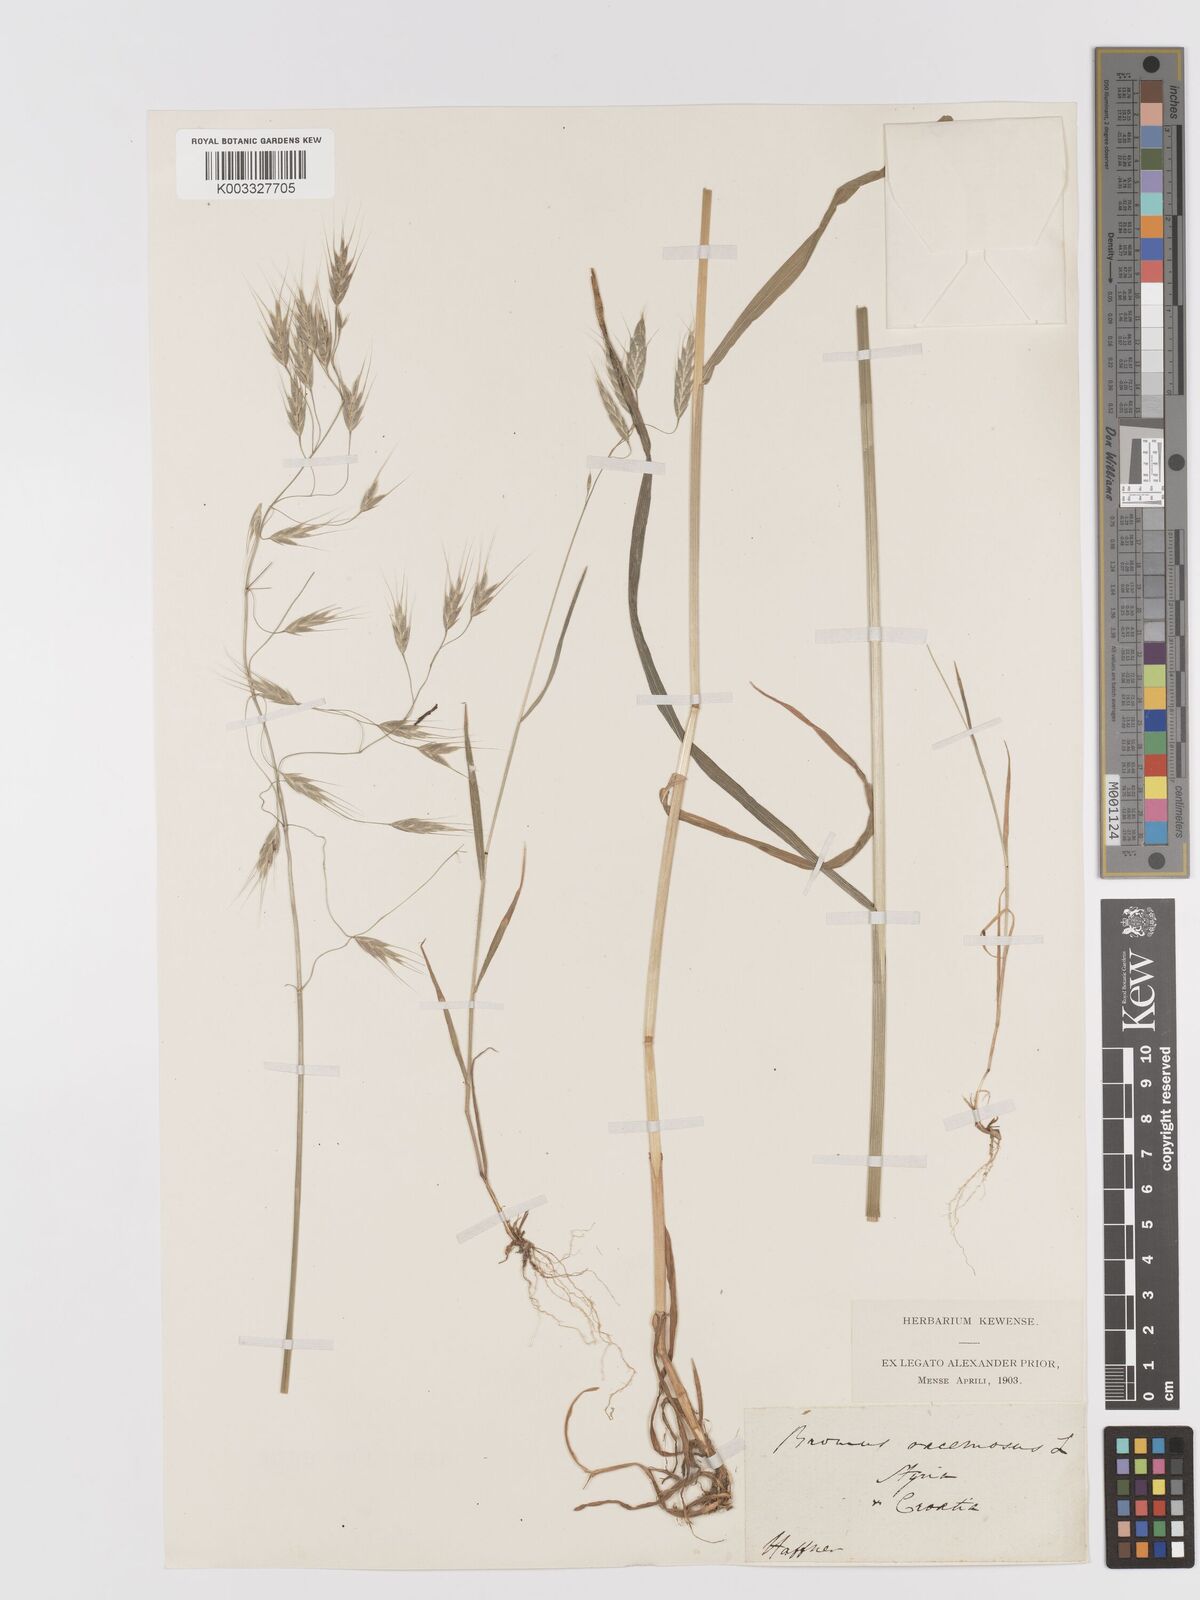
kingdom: Plantae
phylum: Tracheophyta
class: Liliopsida
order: Poales
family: Poaceae
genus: Bromus
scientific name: Bromus japonicus
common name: Japanese brome
